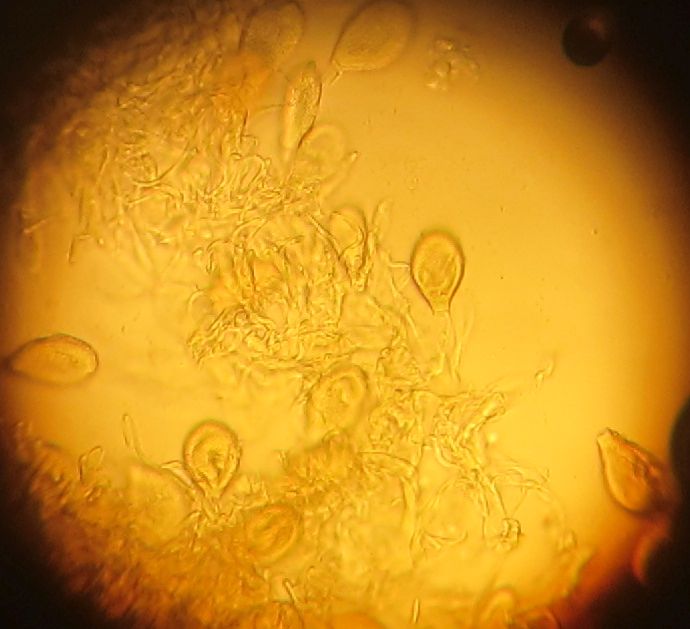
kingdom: Fungi
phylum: Basidiomycota
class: Pucciniomycetes
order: Pucciniales
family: Pucciniaceae
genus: Cumminsiella
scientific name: Cumminsiella mirabilissima
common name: mahonierust
